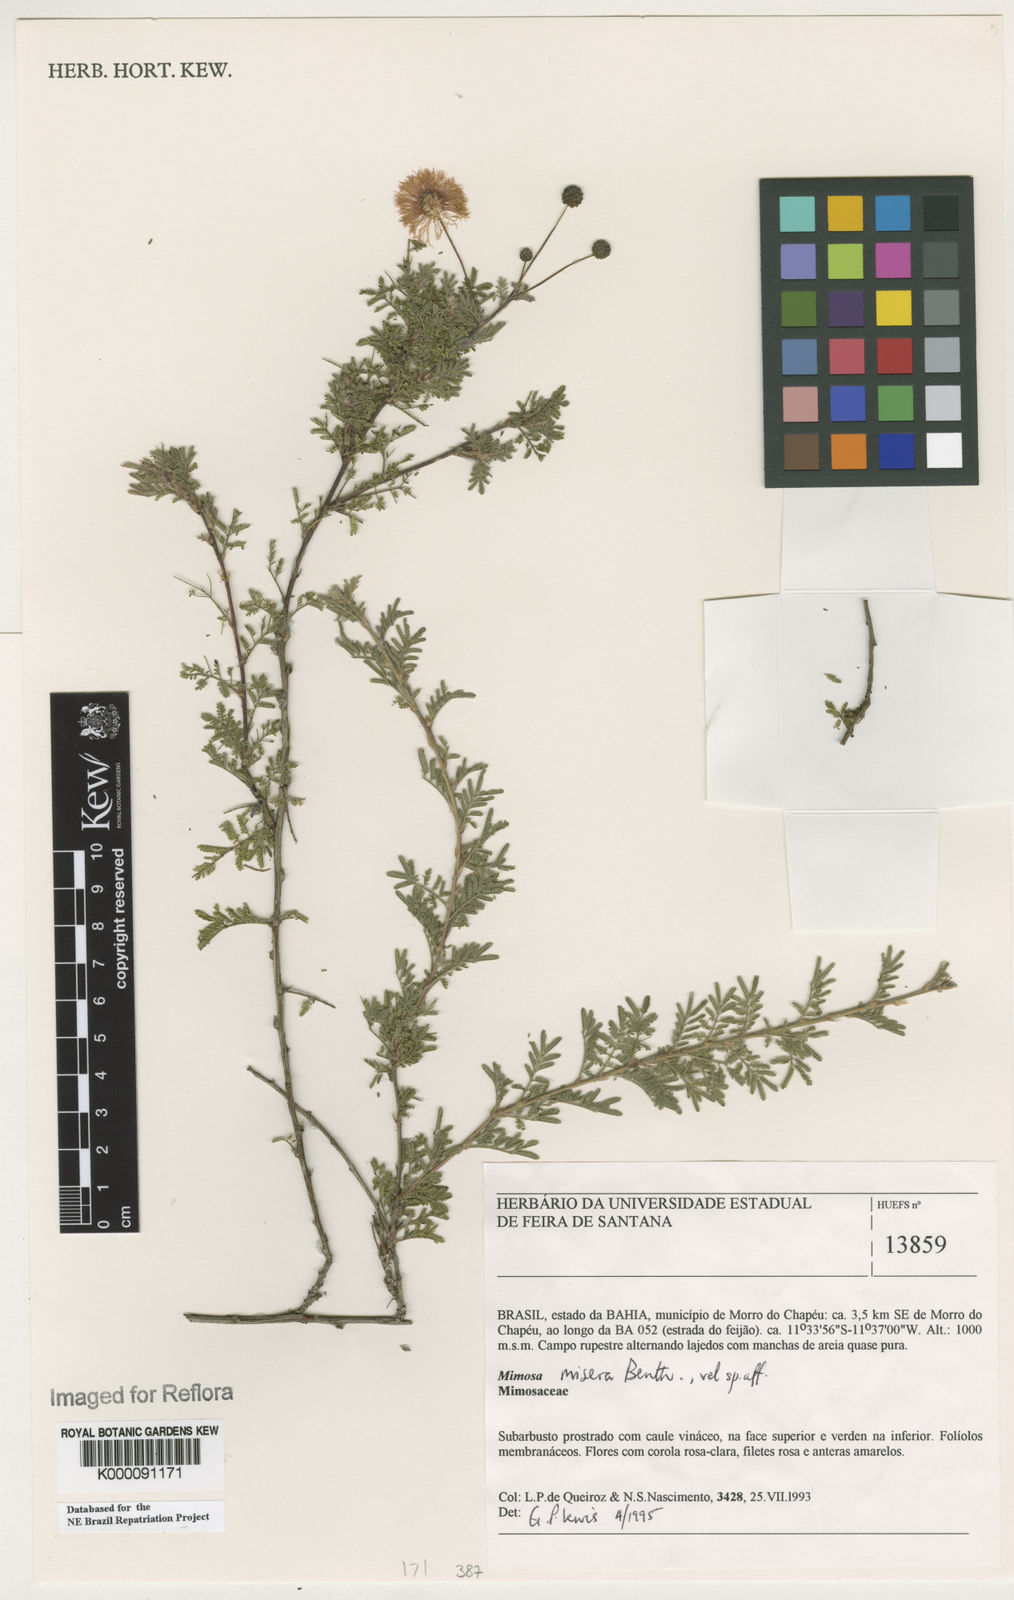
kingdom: Plantae
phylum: Tracheophyta
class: Magnoliopsida
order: Fabales
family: Fabaceae
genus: Mimosa
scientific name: Mimosa misera
